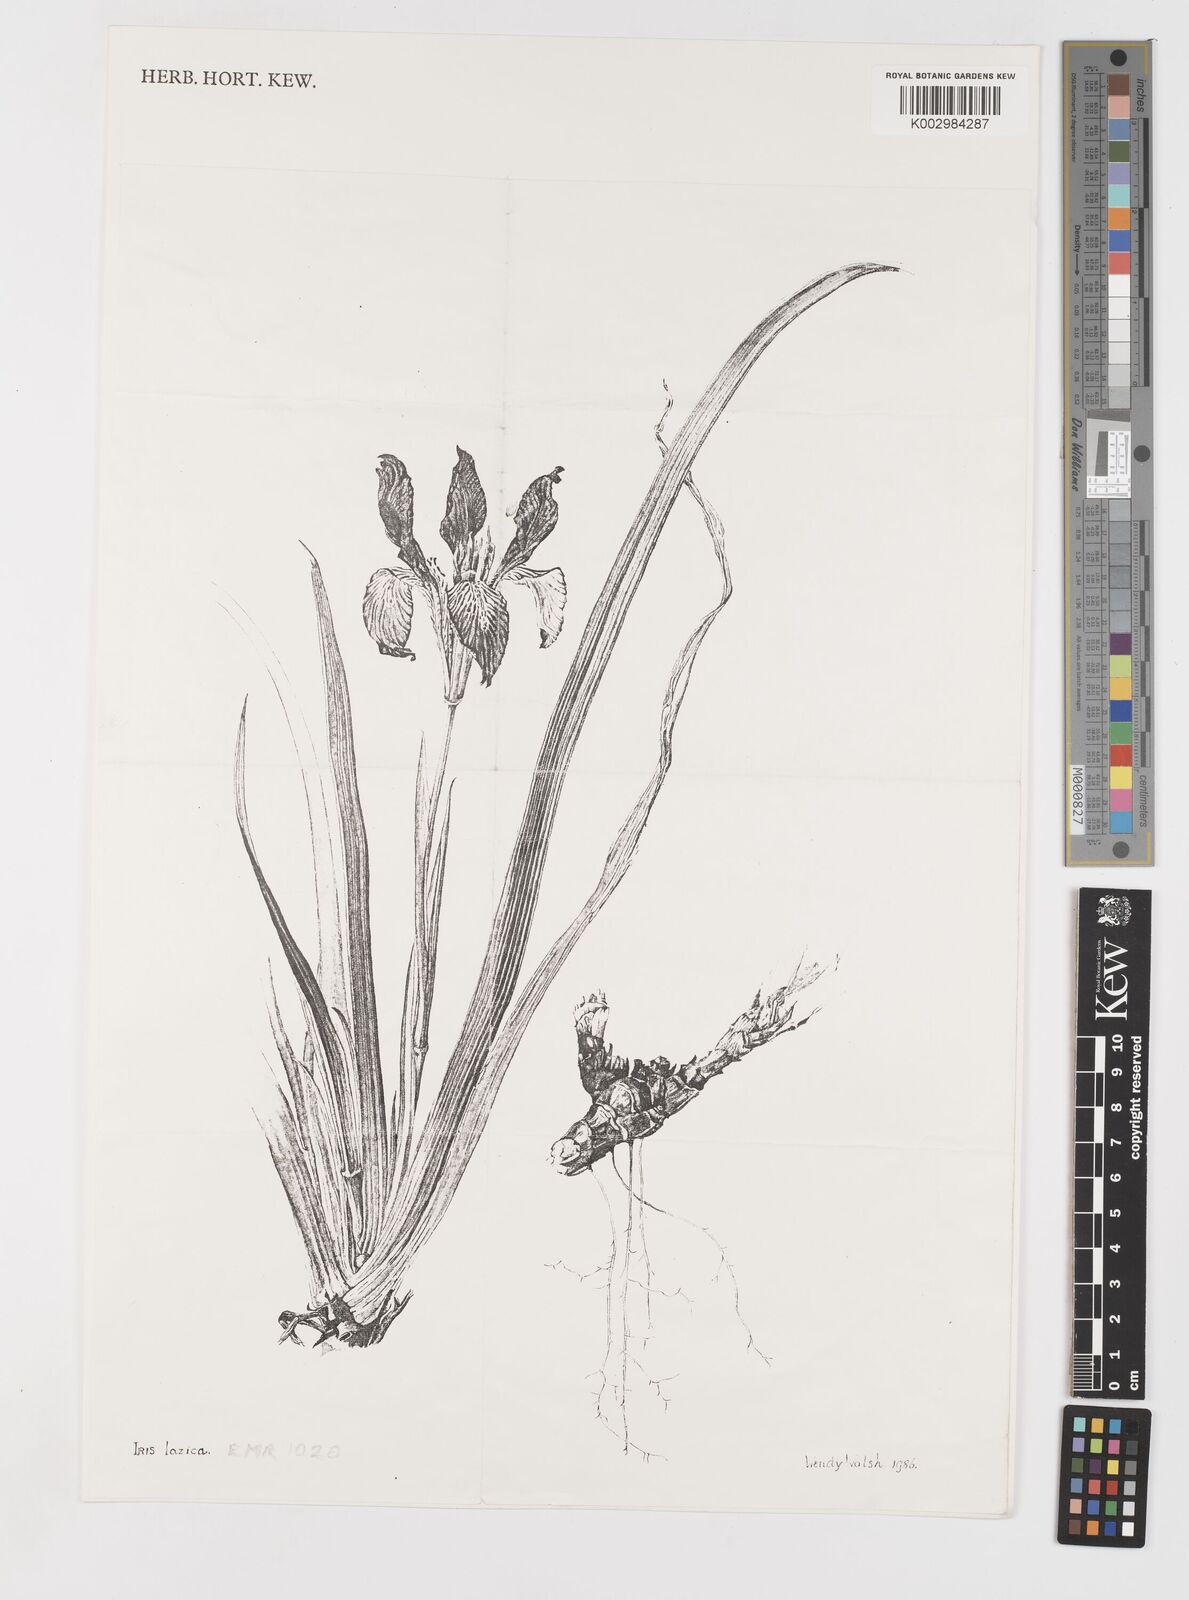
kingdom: Plantae
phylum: Tracheophyta
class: Liliopsida
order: Asparagales
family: Iridaceae
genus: Iris
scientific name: Iris lazica
